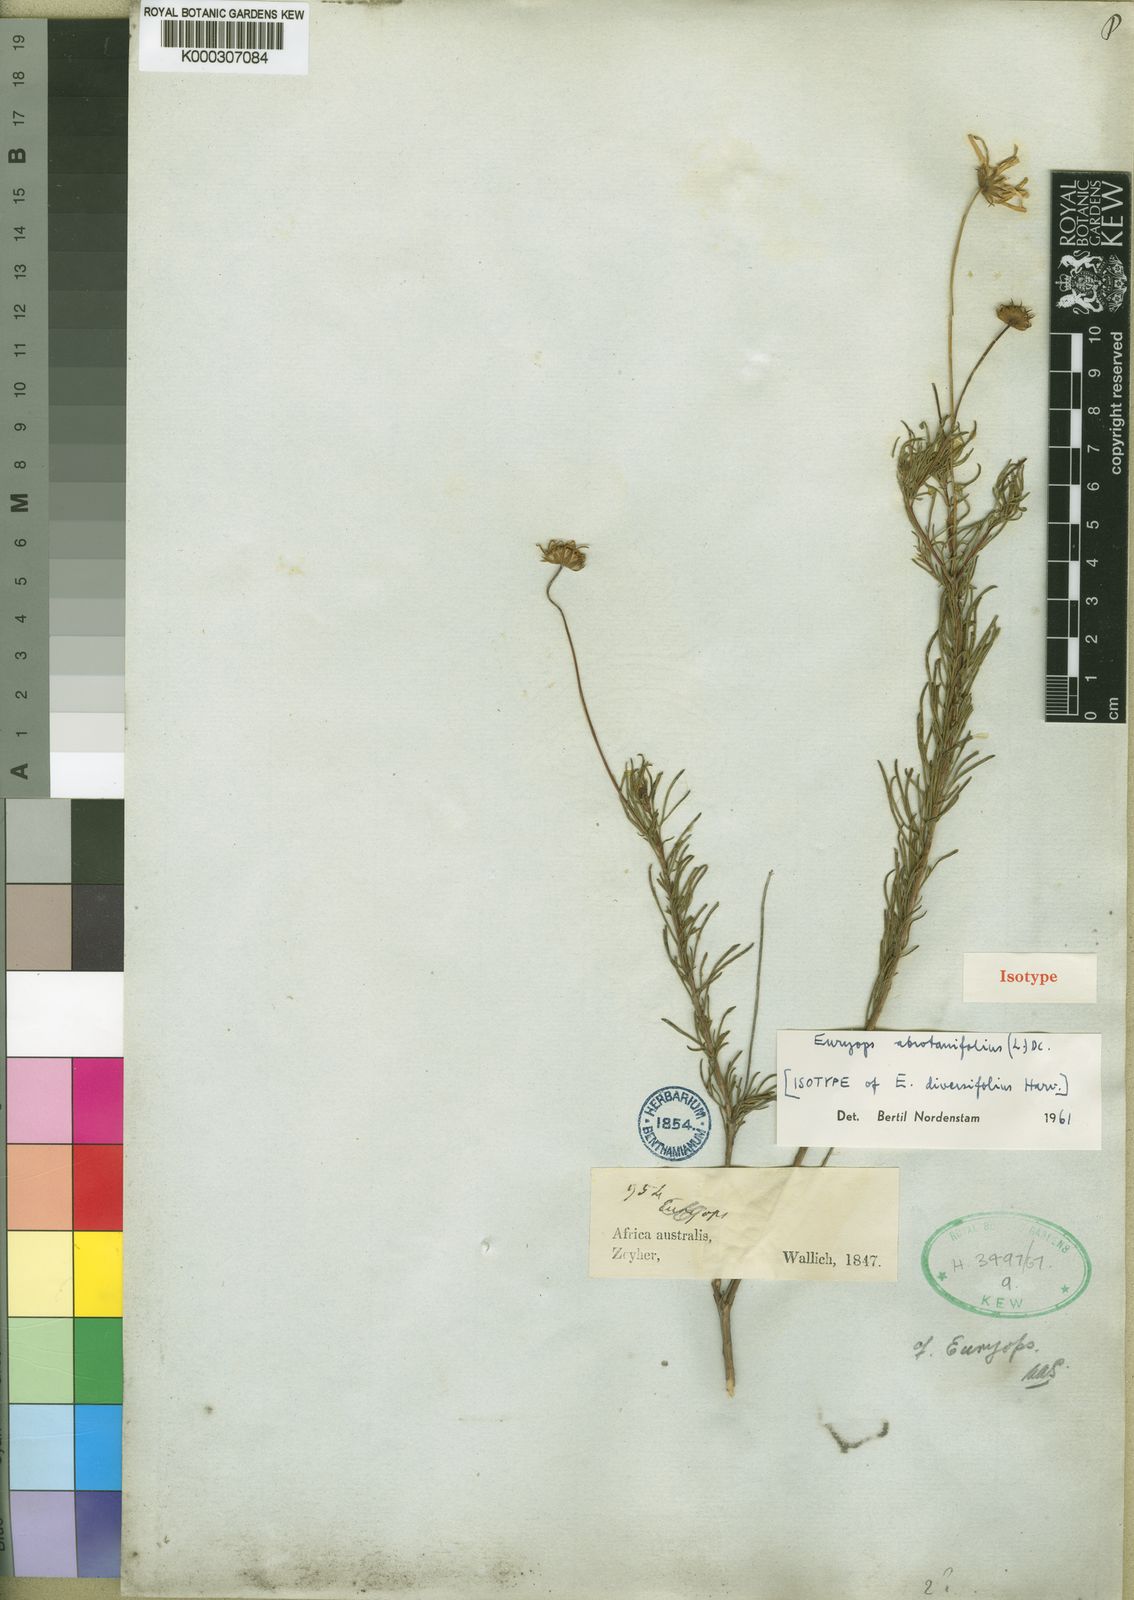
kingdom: Plantae
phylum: Tracheophyta
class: Magnoliopsida
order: Asterales
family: Asteraceae
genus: Euryops
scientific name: Euryops abrotanifolius
